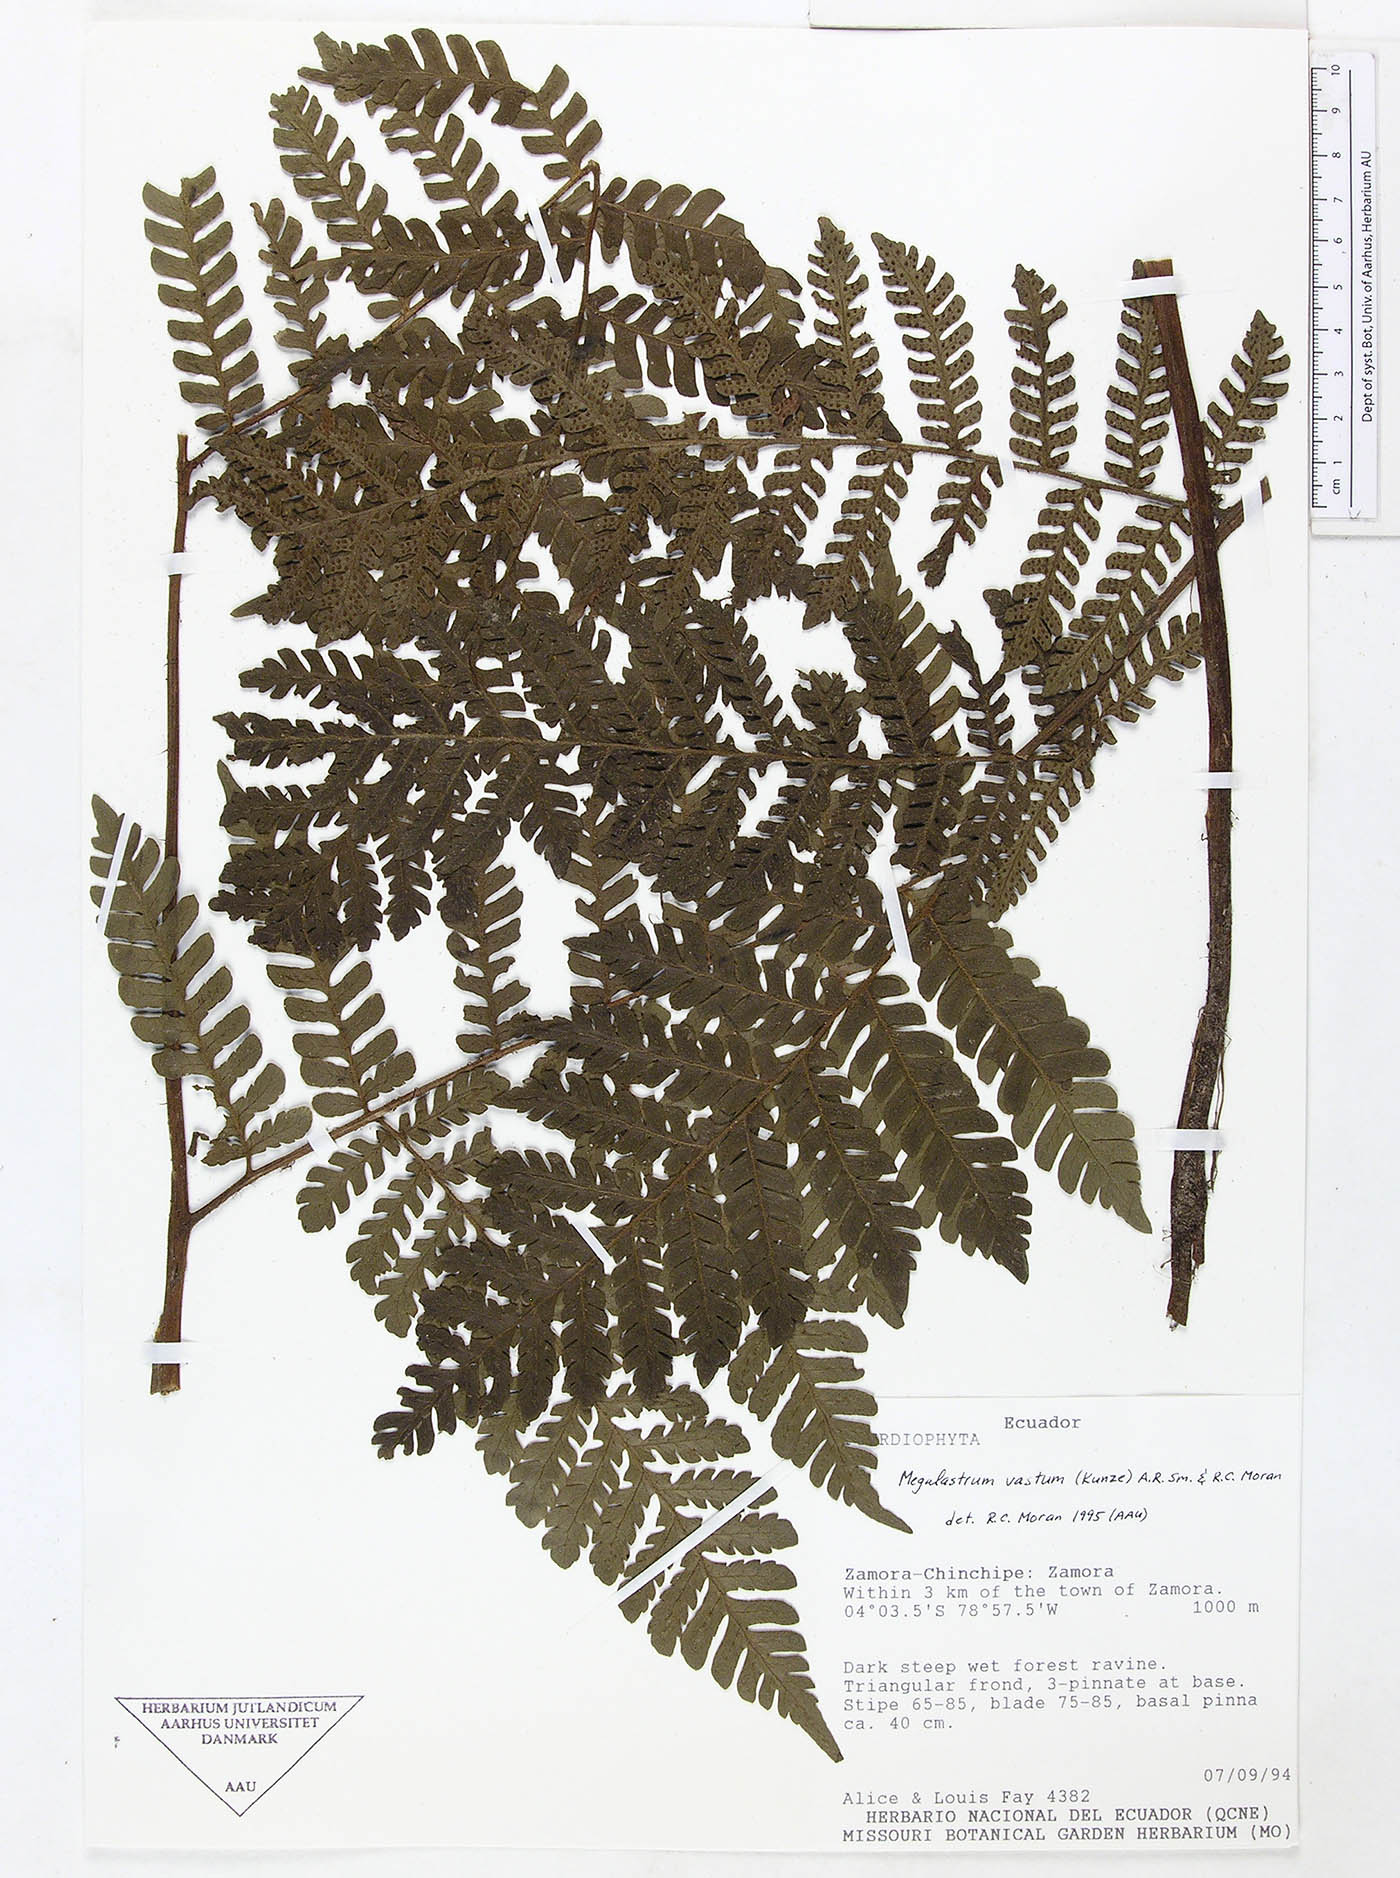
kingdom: Plantae
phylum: Tracheophyta
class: Polypodiopsida
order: Polypodiales
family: Dryopteridaceae
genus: Megalastrum
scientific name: Megalastrum miscellum
